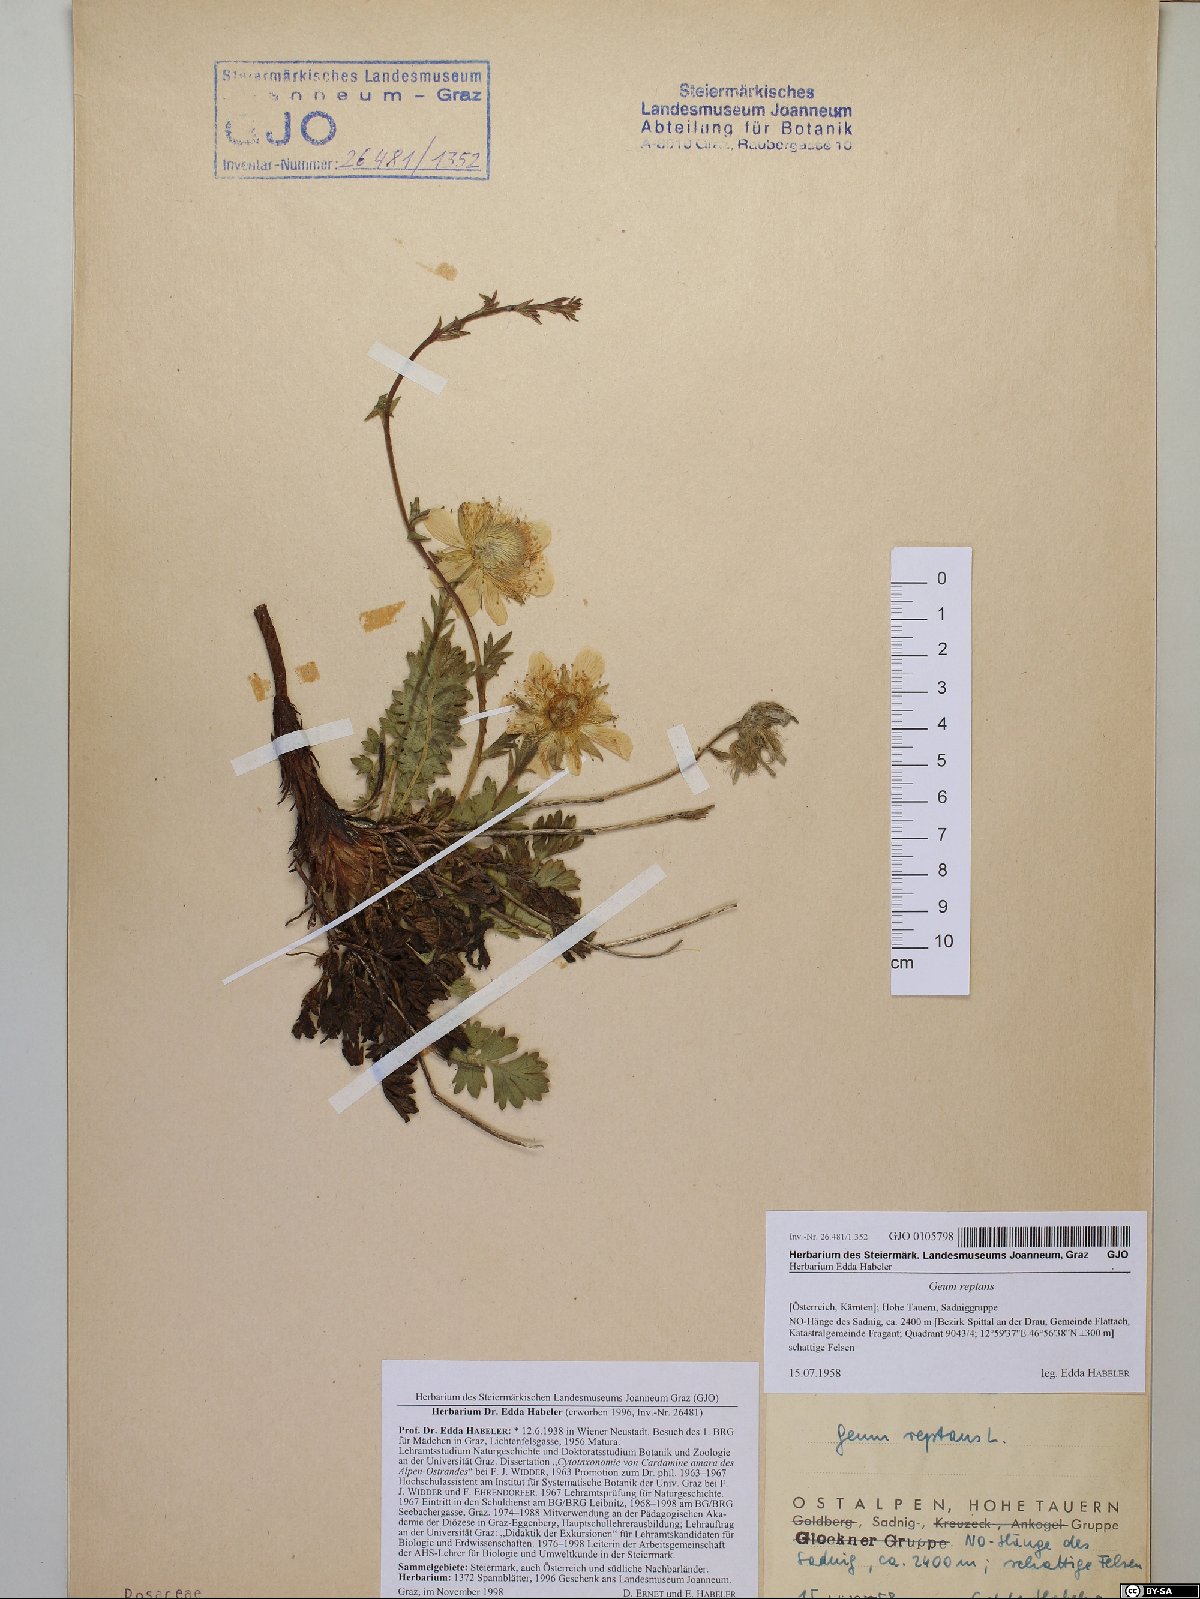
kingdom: Plantae
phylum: Tracheophyta
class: Magnoliopsida
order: Rosales
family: Rosaceae
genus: Geum
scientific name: Geum reptans
